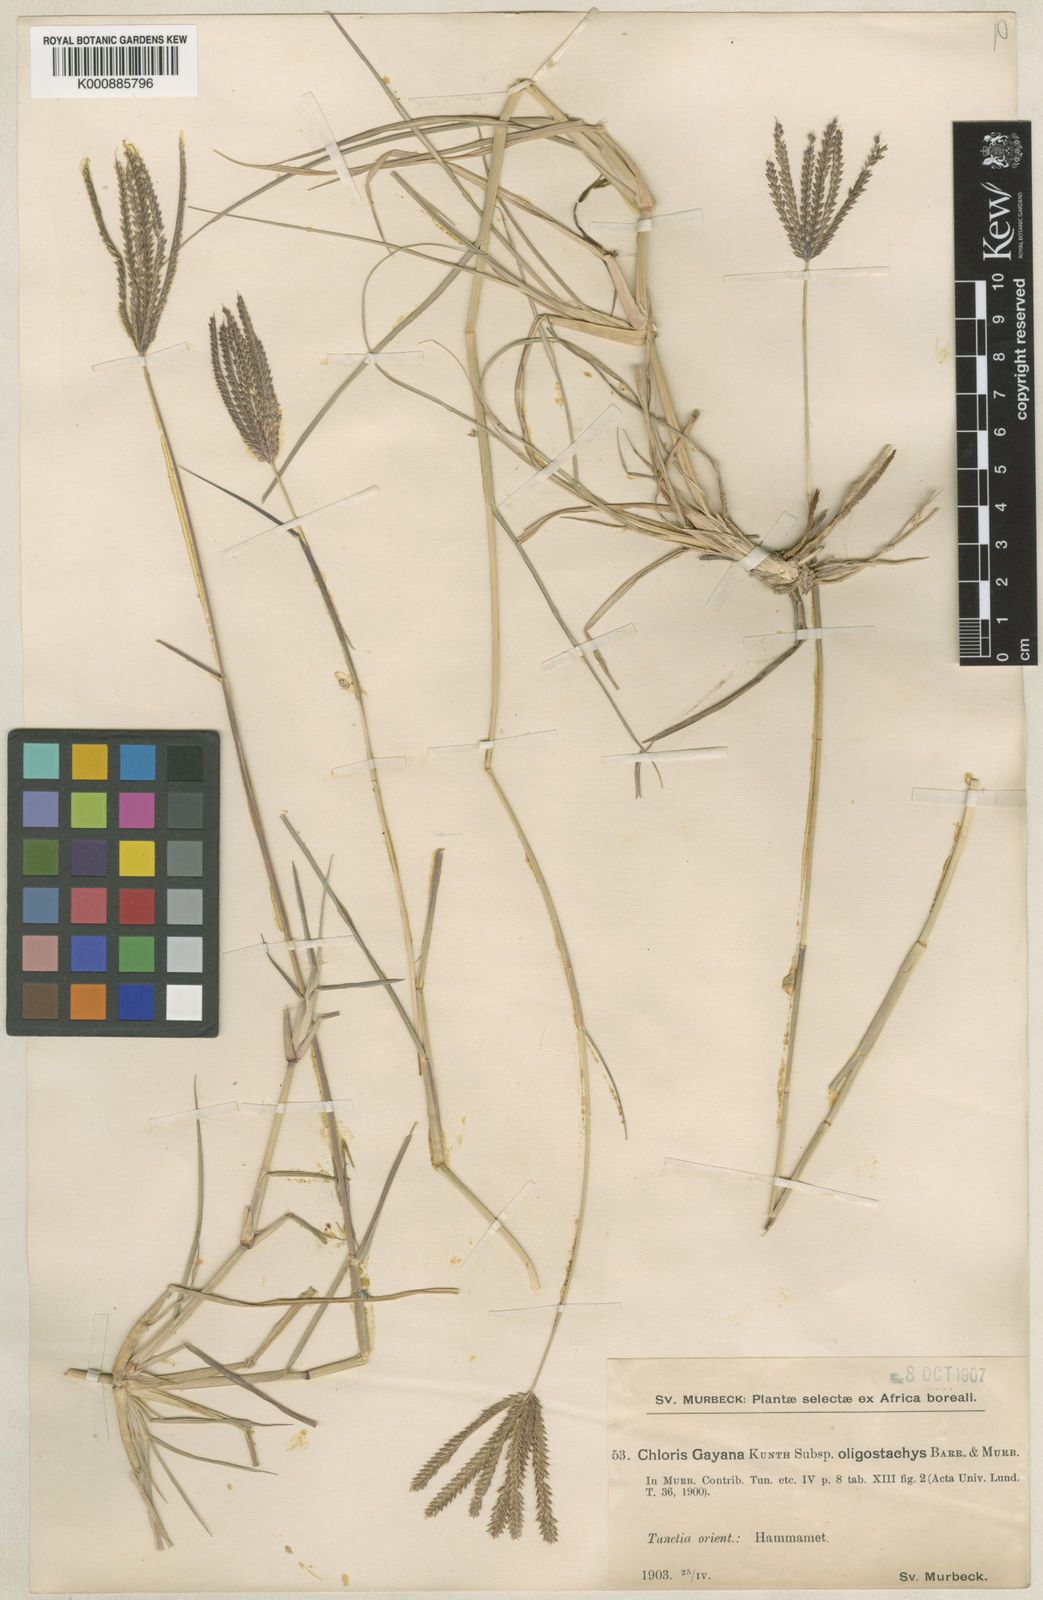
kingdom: Plantae
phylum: Tracheophyta
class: Liliopsida
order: Poales
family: Poaceae
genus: Chloris
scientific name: Chloris gayana
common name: Rhodes grass
